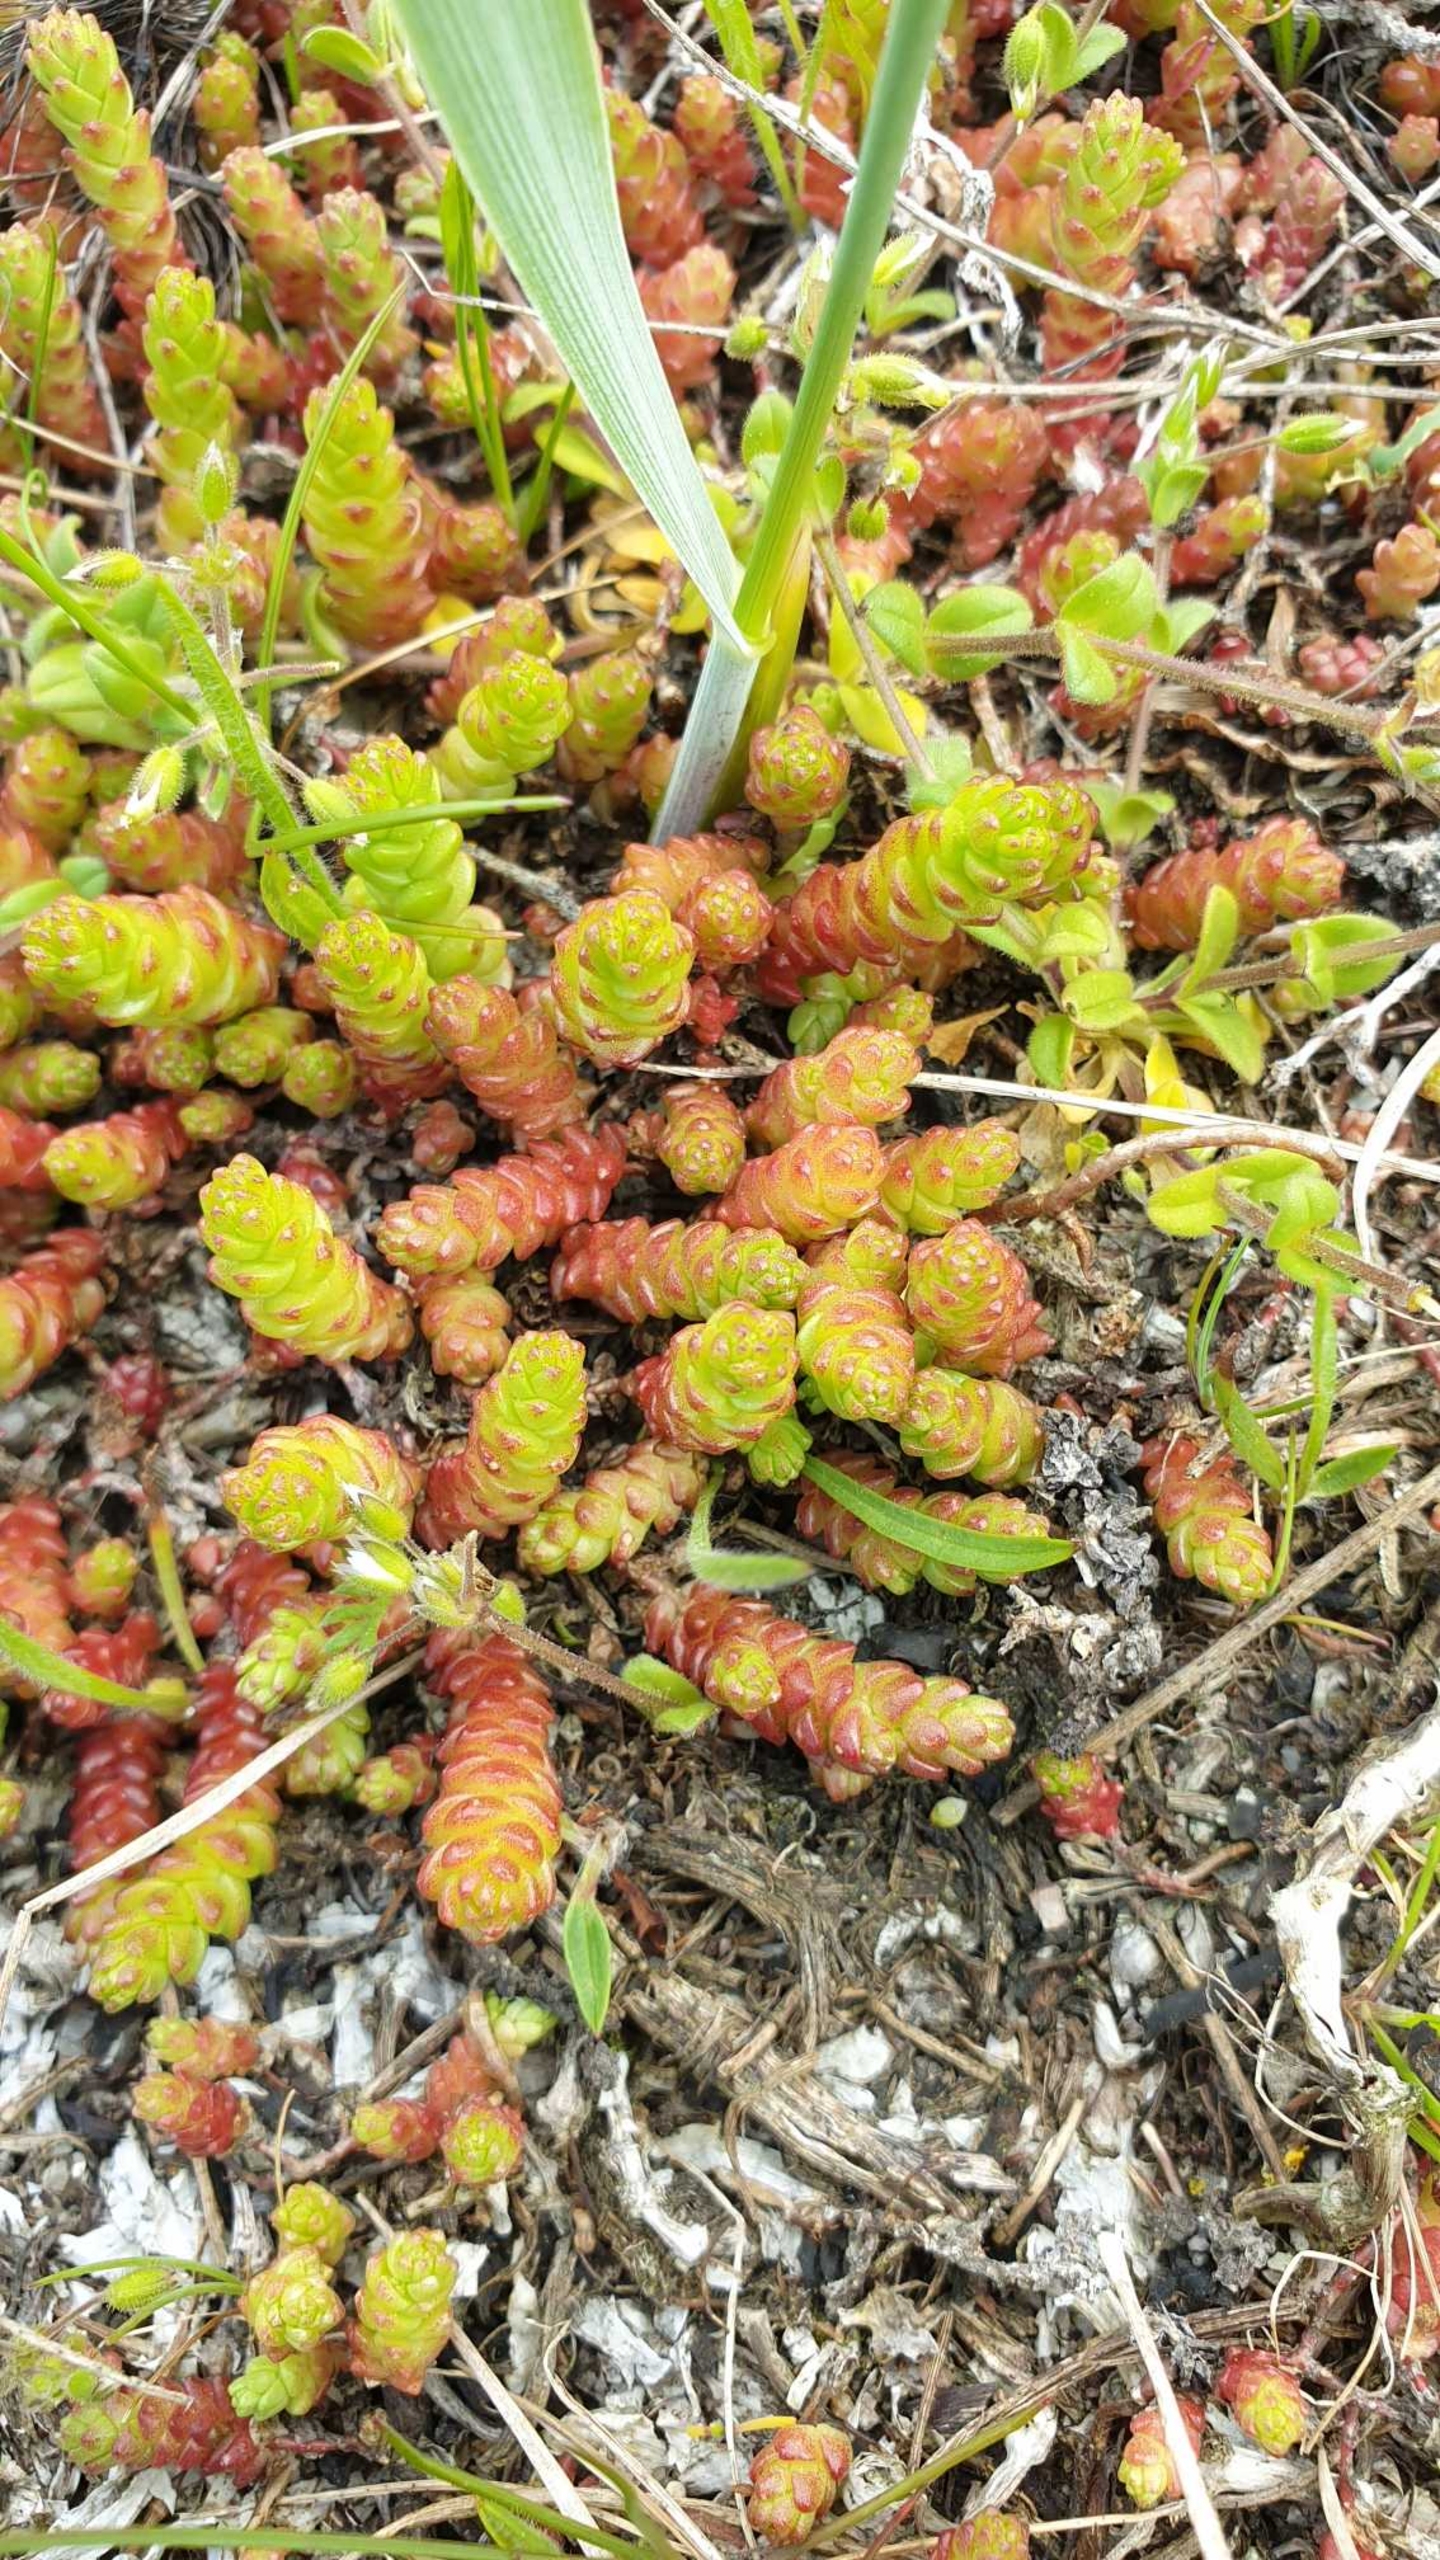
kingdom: Plantae
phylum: Tracheophyta
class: Magnoliopsida
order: Saxifragales
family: Crassulaceae
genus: Sedum
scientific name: Sedum acre
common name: Bidende stenurt
